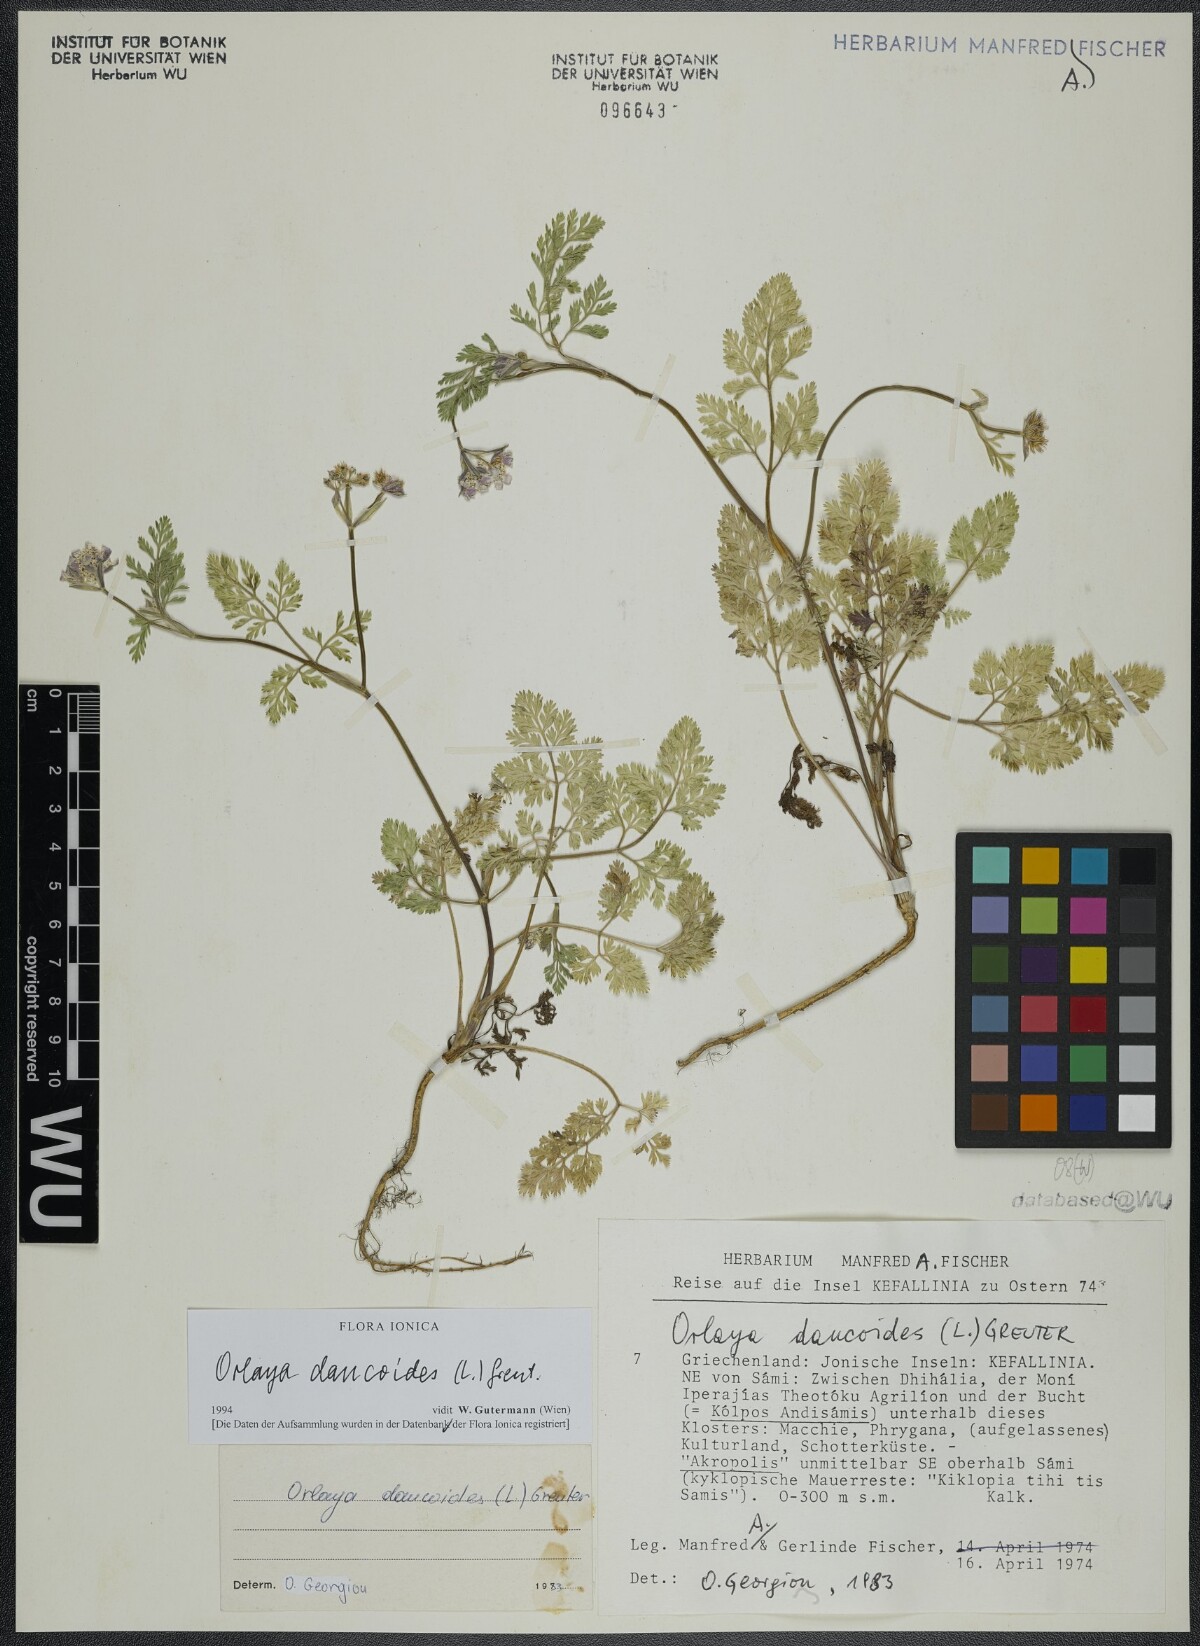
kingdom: Plantae
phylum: Tracheophyta
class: Magnoliopsida
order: Apiales
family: Apiaceae
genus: Orlaya
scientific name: Orlaya daucoides
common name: Flat-fruit orlaya
